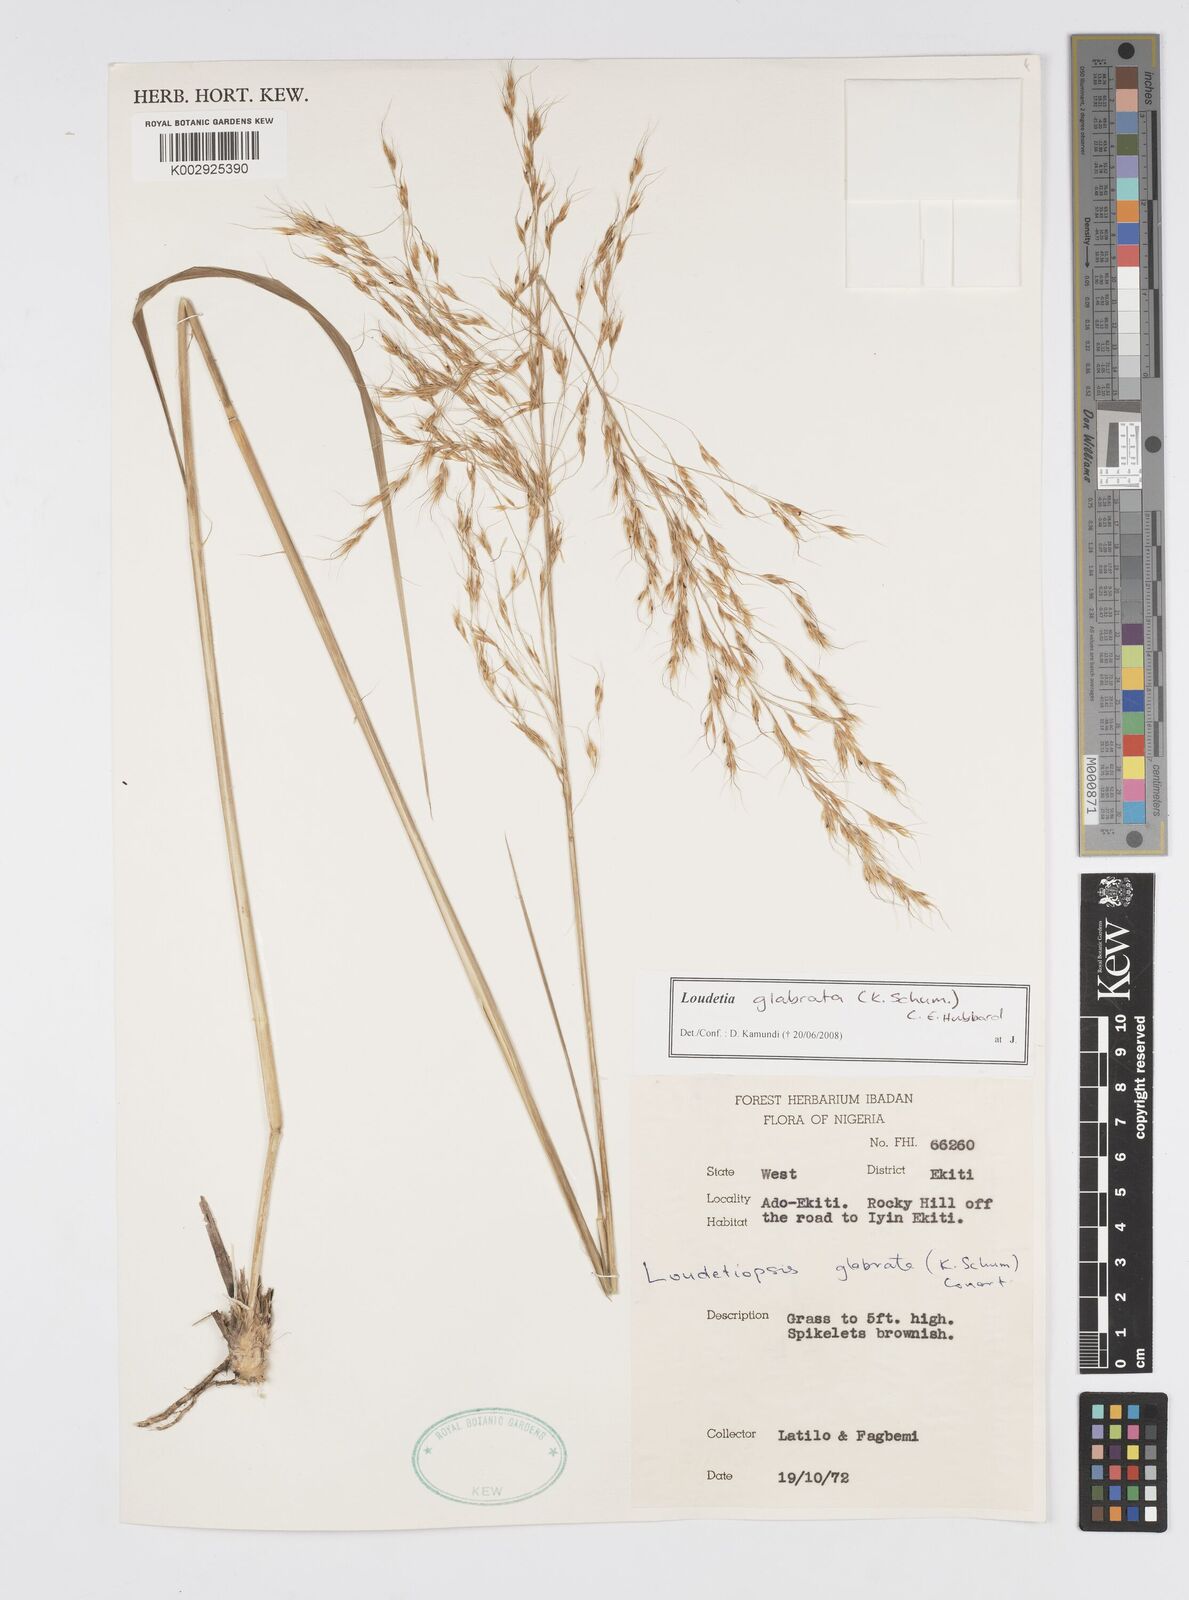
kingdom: Plantae
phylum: Tracheophyta
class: Liliopsida
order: Poales
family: Poaceae
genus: Loudetiopsis
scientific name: Loudetiopsis glabrata
